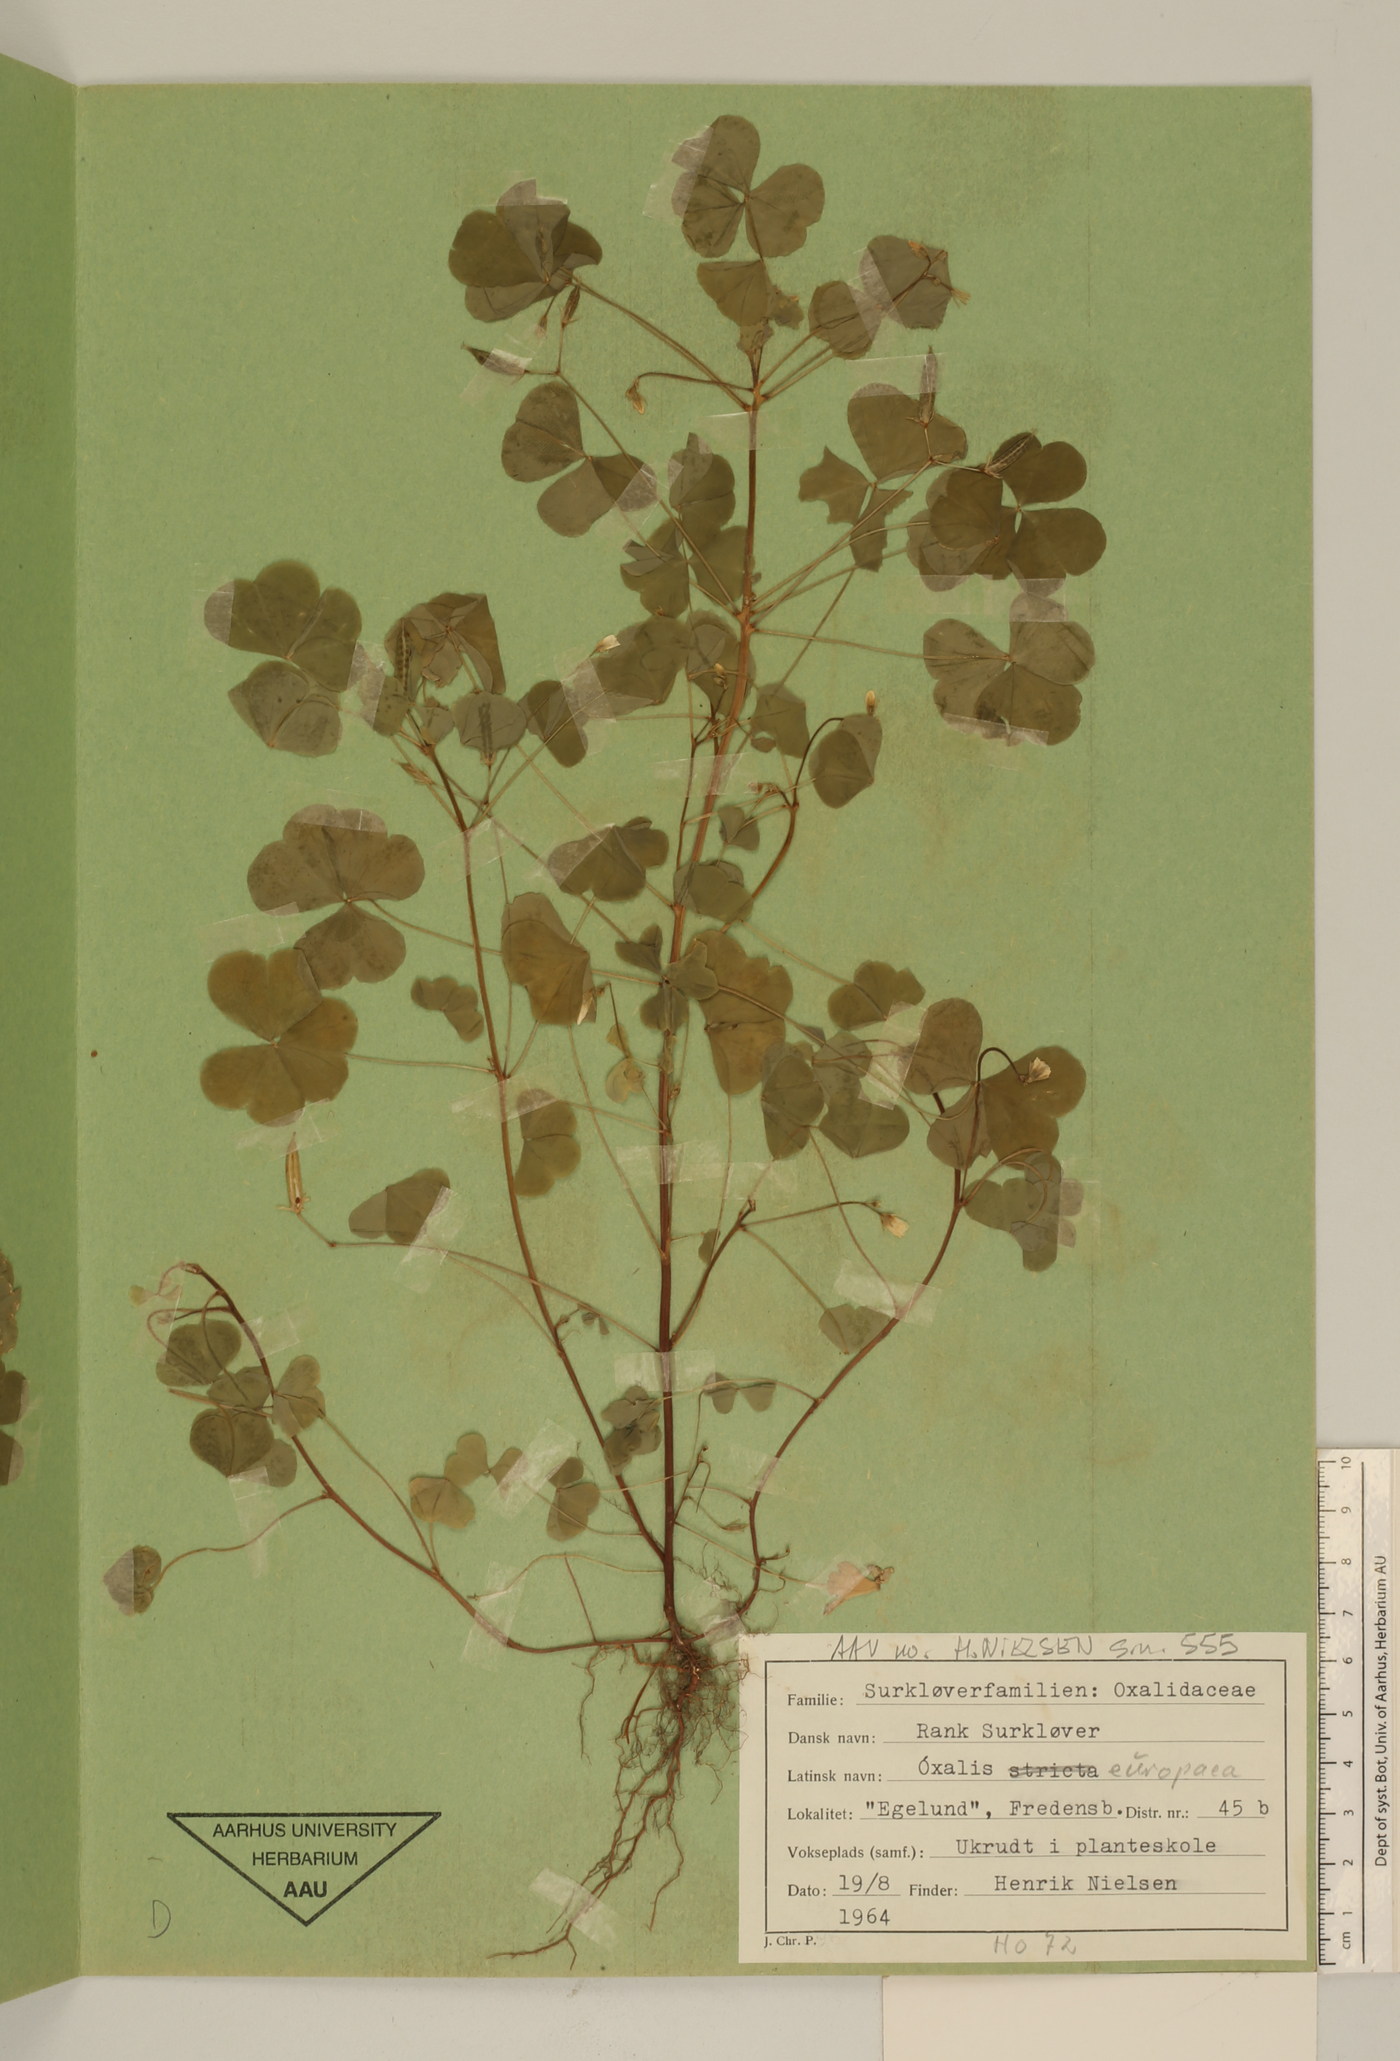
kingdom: Plantae
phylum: Tracheophyta
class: Magnoliopsida
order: Oxalidales
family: Oxalidaceae
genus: Oxalis
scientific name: Oxalis stricta
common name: Upright yellow-sorrel
